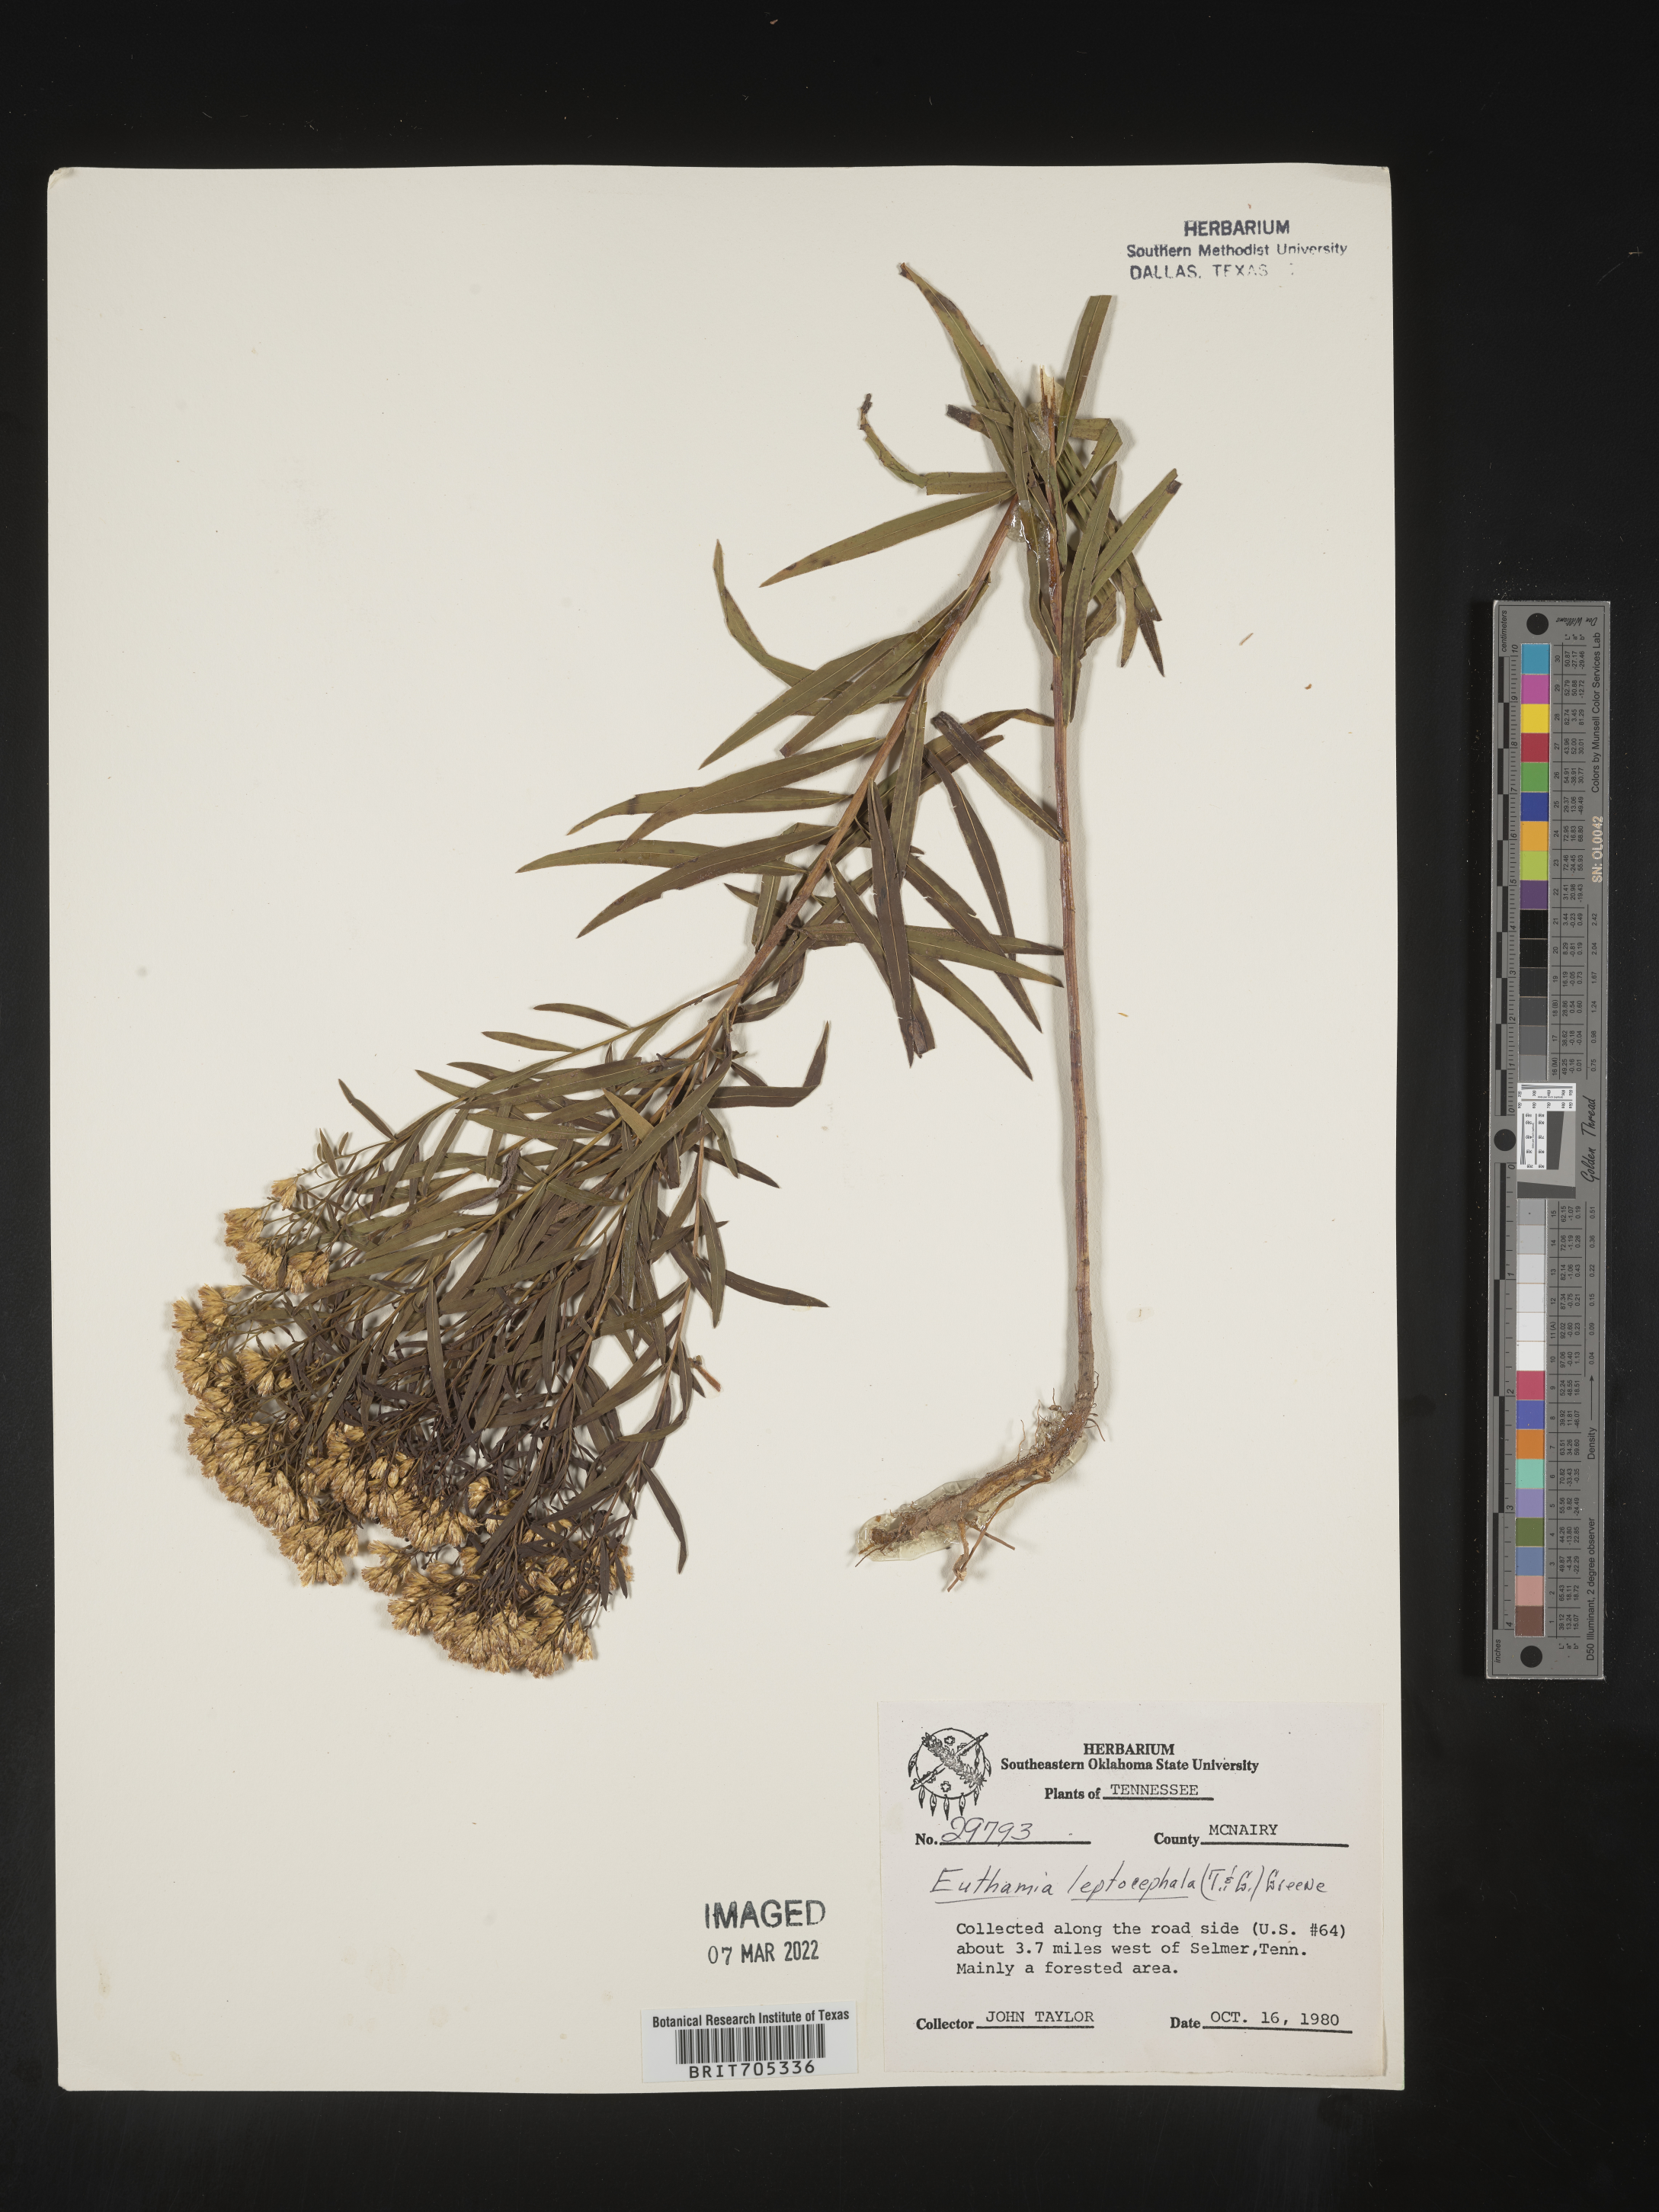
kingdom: Plantae
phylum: Tracheophyta
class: Magnoliopsida
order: Asterales
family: Asteraceae
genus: Euthamia
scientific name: Euthamia leptocephala
